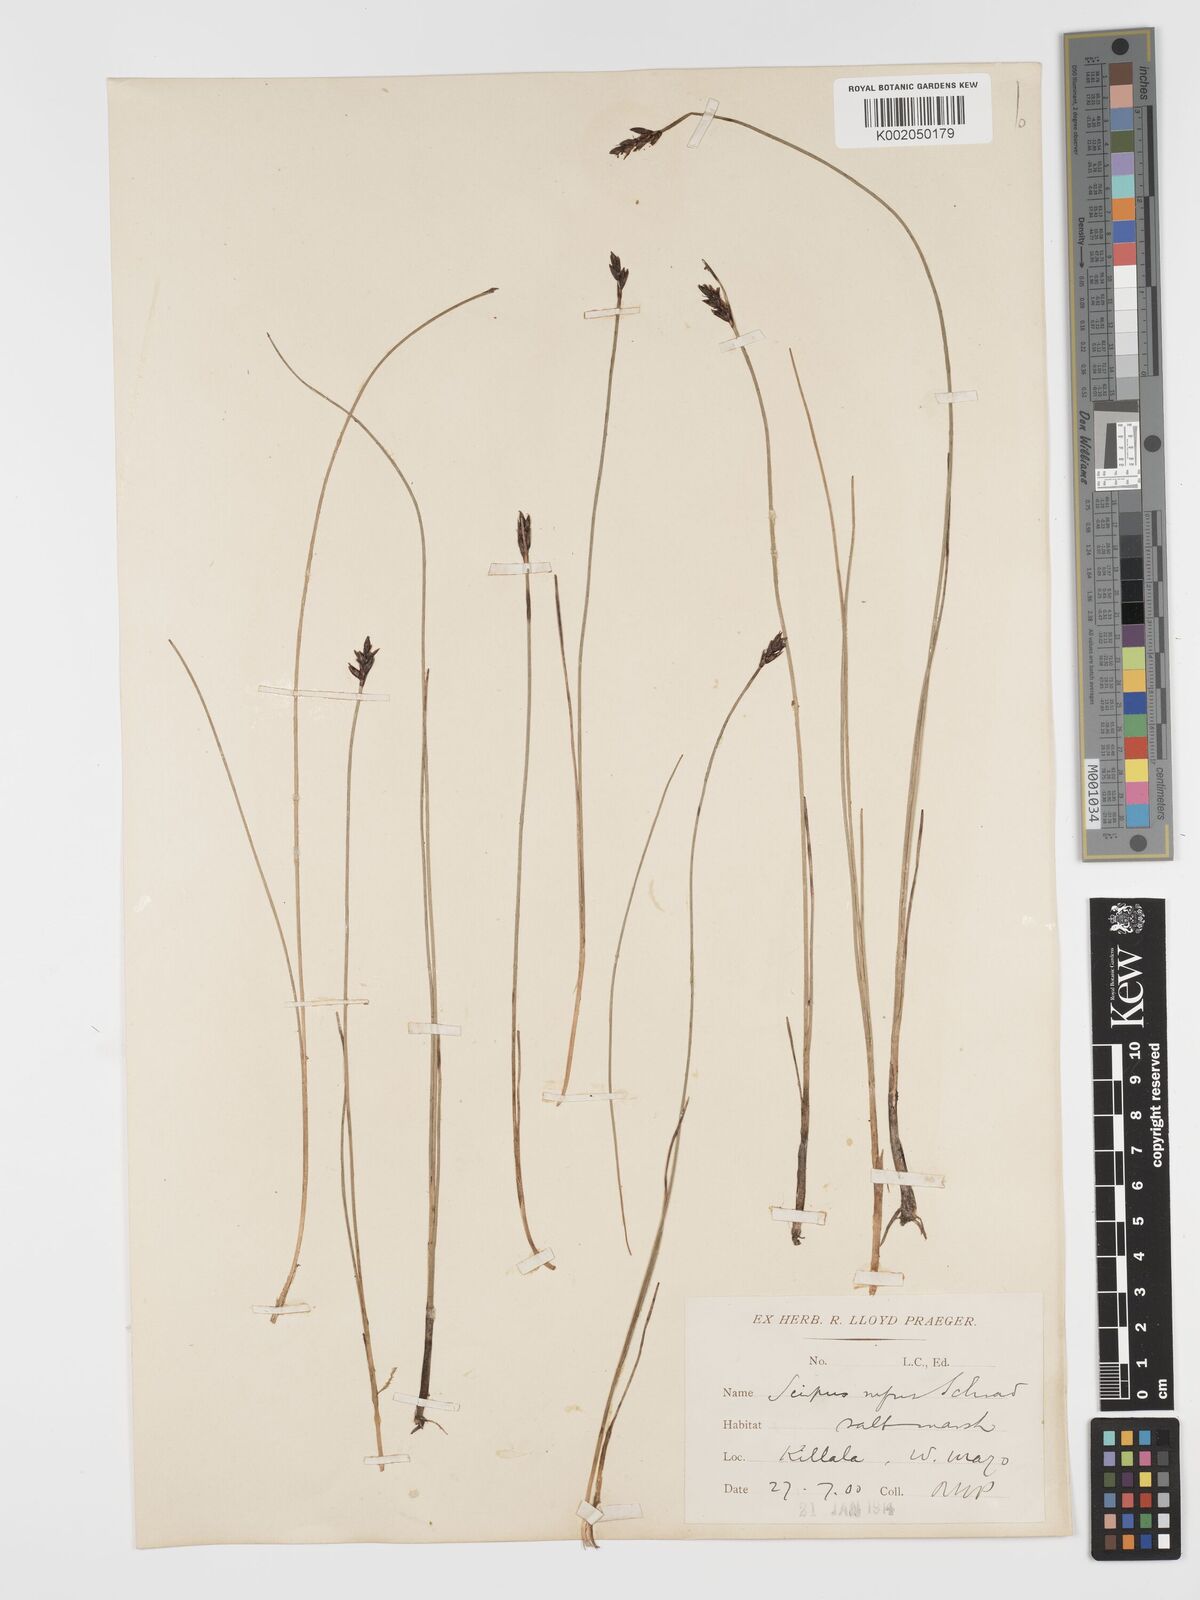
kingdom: Plantae
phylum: Tracheophyta
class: Liliopsida
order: Poales
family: Cyperaceae
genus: Blysmus
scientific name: Blysmus rufus
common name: Saltmarsh flat-sedge
